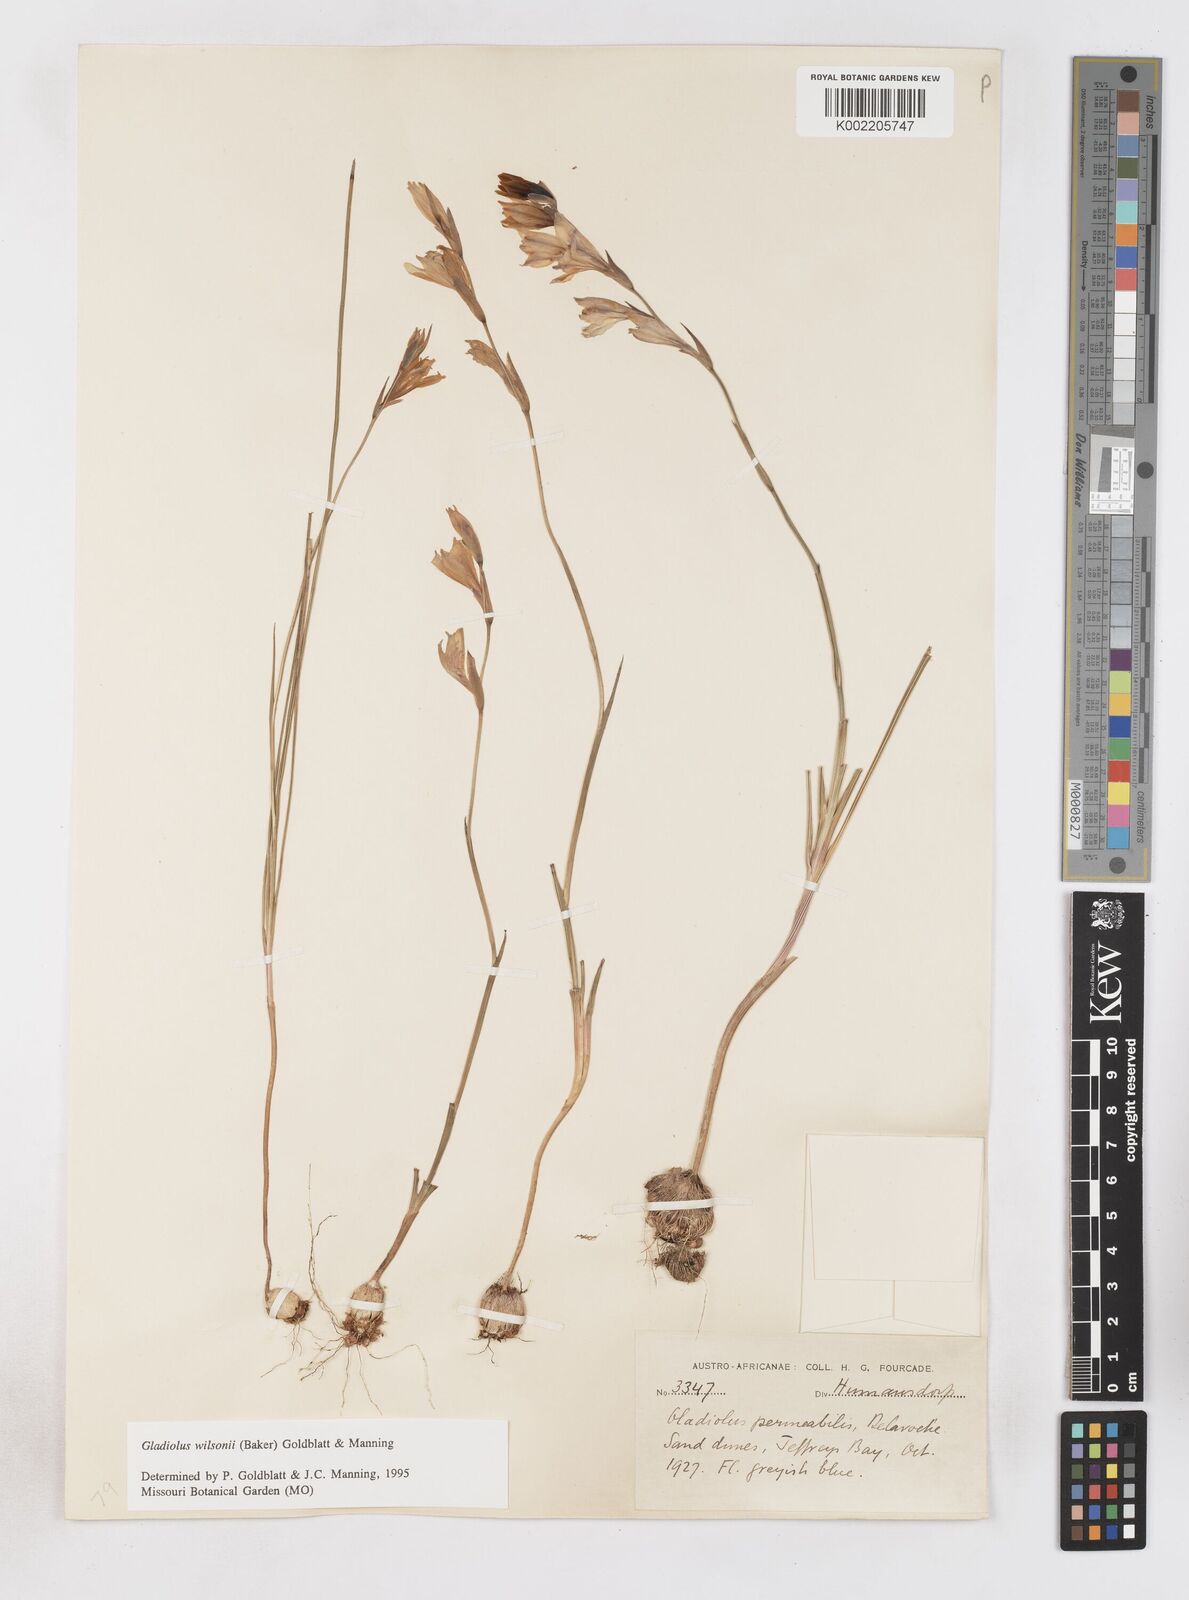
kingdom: Plantae
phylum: Tracheophyta
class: Liliopsida
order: Asparagales
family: Iridaceae
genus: Gladiolus
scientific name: Gladiolus wilsonii
